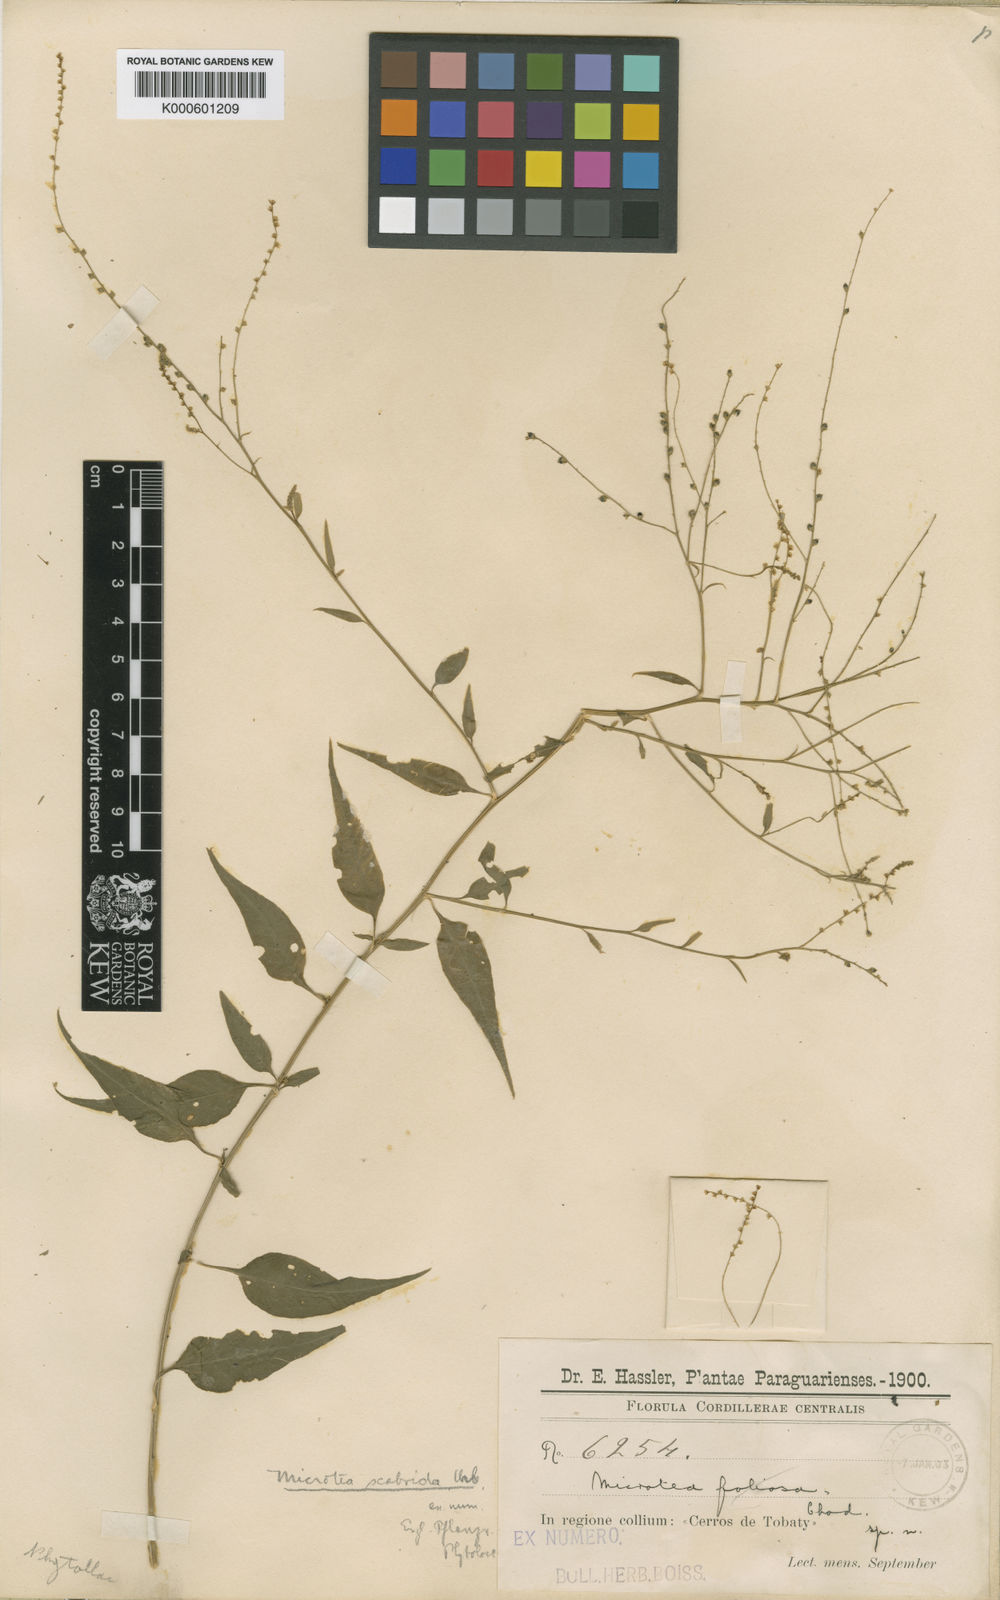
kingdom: Plantae
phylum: Tracheophyta
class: Magnoliopsida
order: Caryophyllales
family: Microteaceae
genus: Microtea
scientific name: Microtea scabrida
